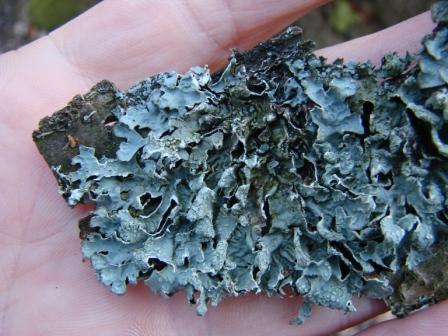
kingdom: Fungi
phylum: Ascomycota
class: Lecanoromycetes
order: Lecanorales
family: Parmeliaceae
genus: Parmelia
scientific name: Parmelia sulcata
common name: rynket skållav
